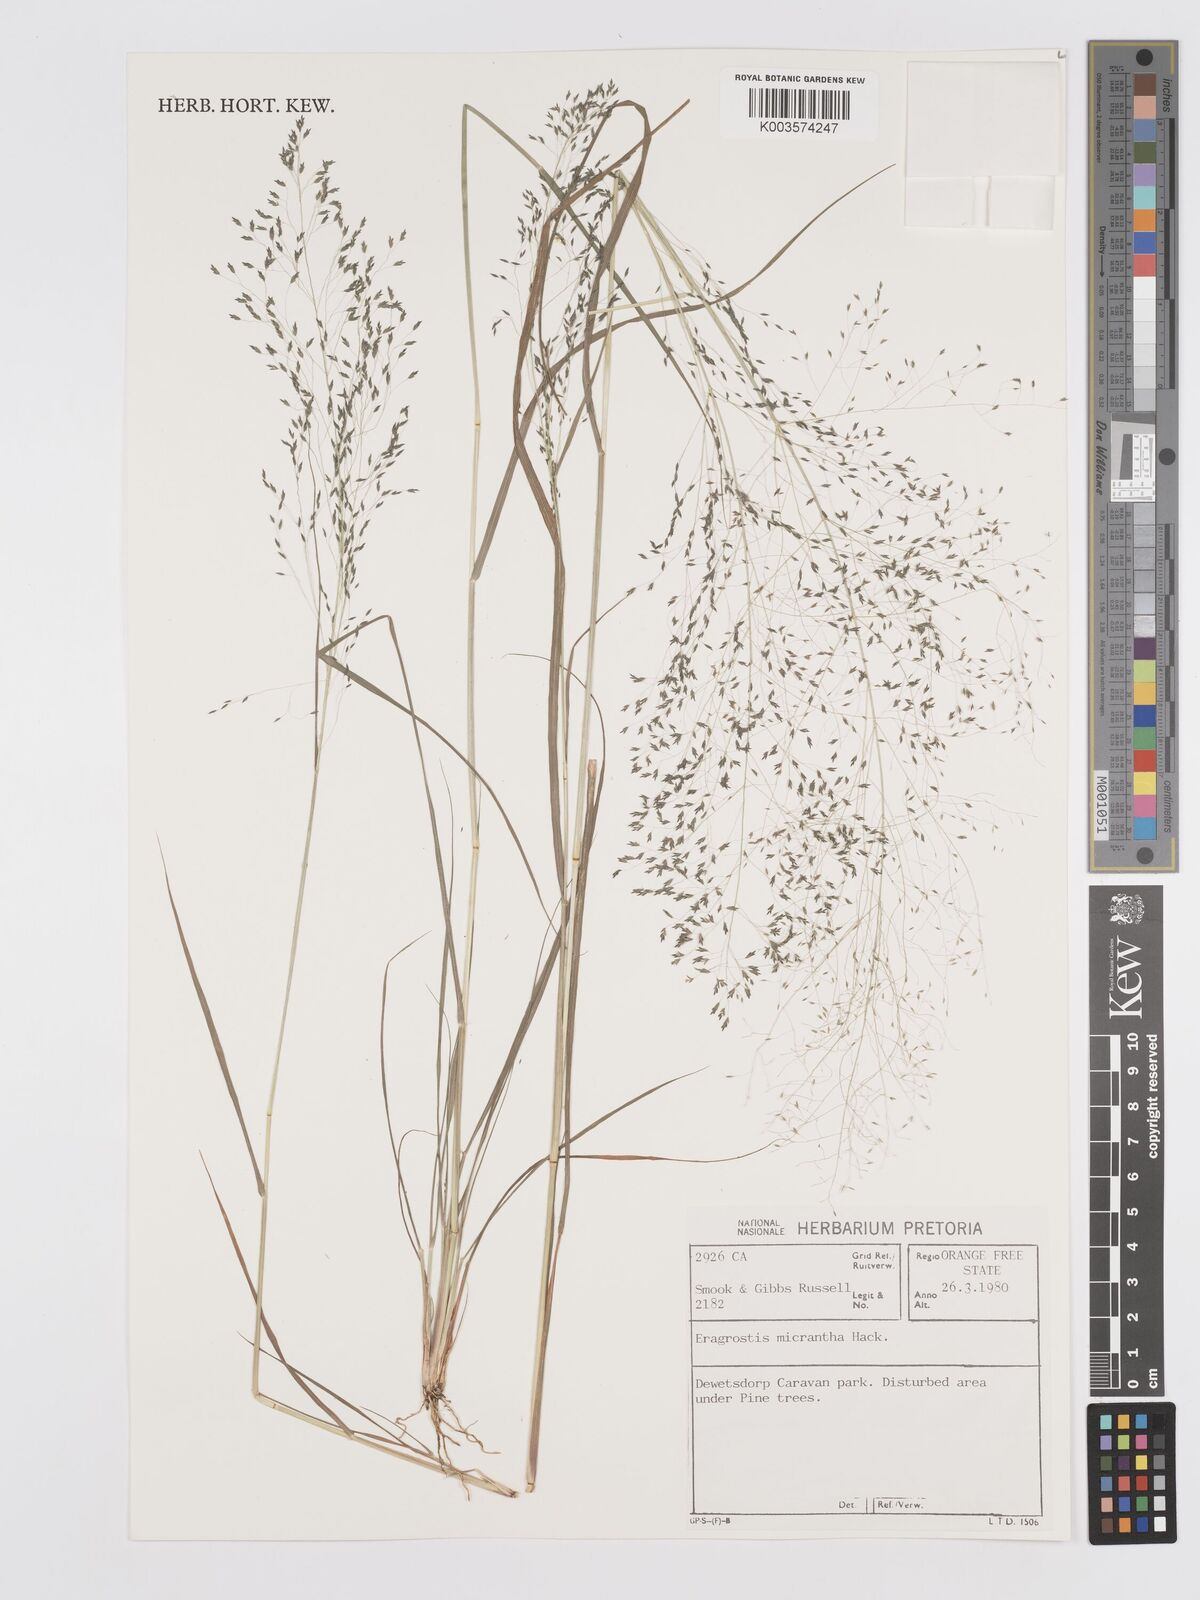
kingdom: Plantae
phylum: Tracheophyta
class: Liliopsida
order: Poales
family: Poaceae
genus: Eragrostis
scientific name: Eragrostis micrantha
